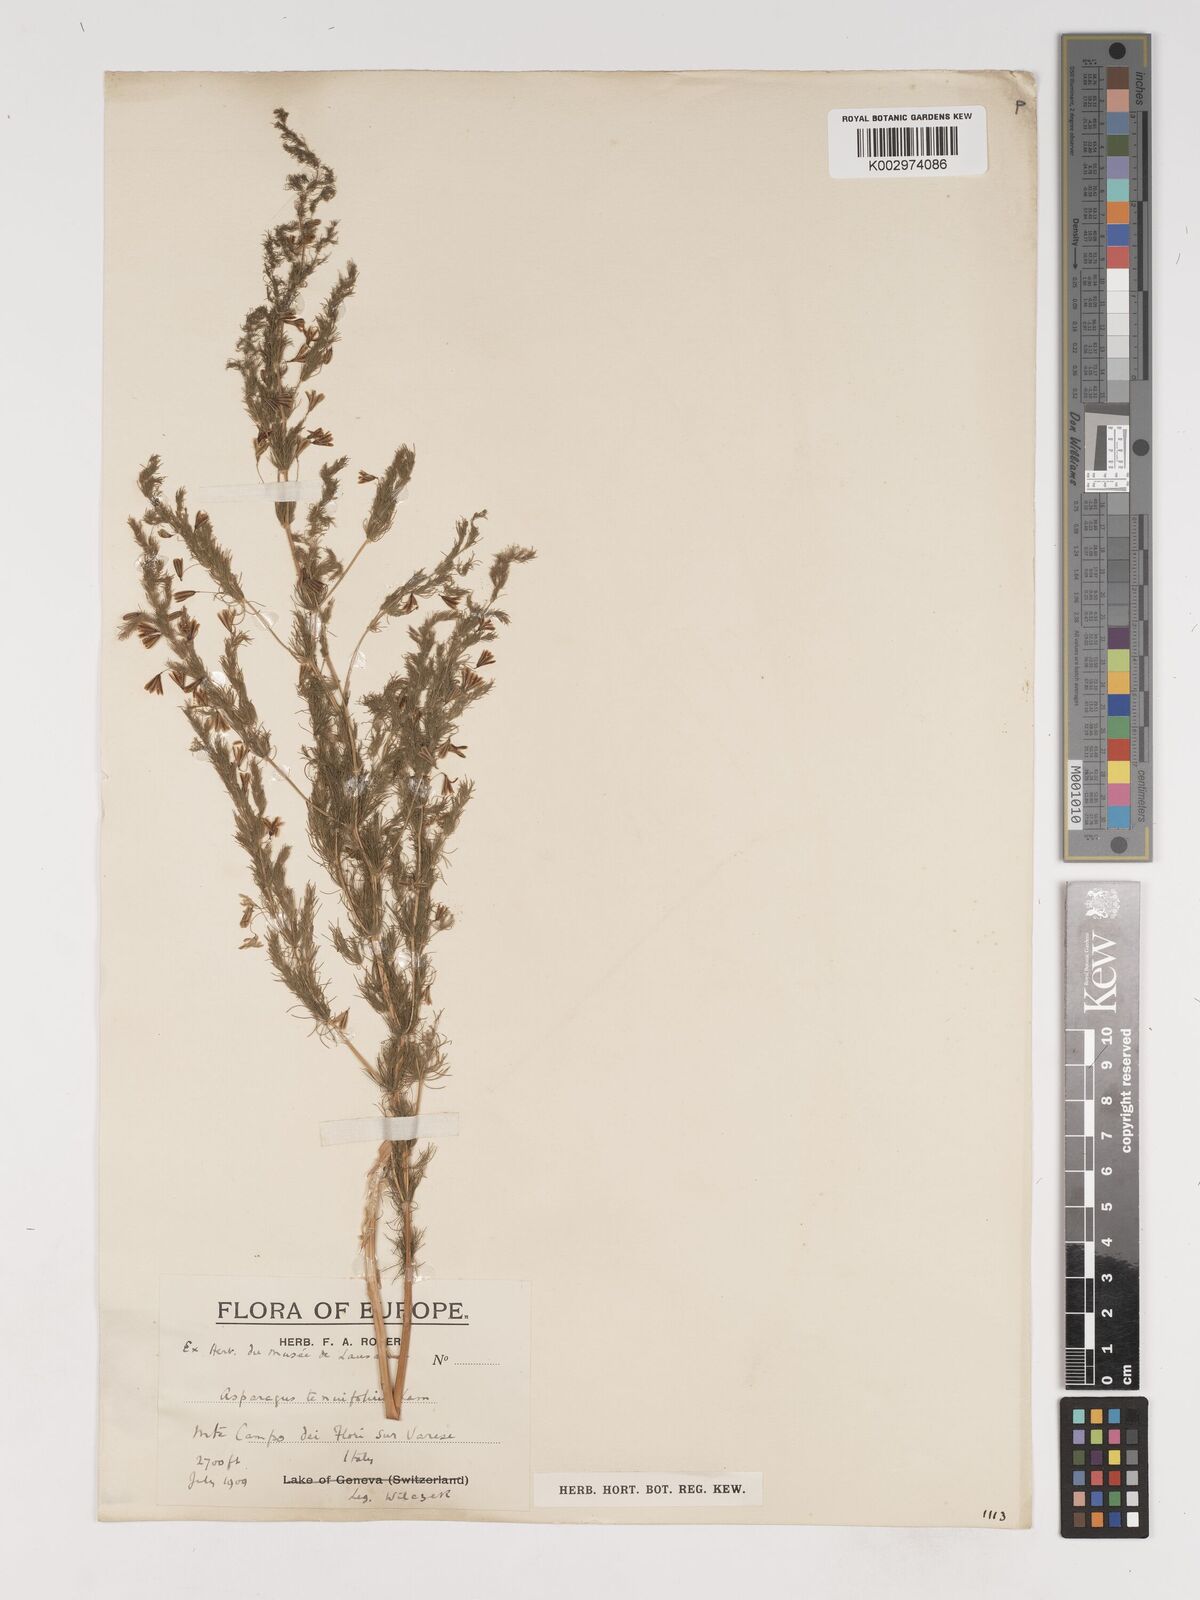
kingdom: Plantae
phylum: Tracheophyta
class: Liliopsida
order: Asparagales
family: Asparagaceae
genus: Asparagus
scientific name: Asparagus tenuifolius
